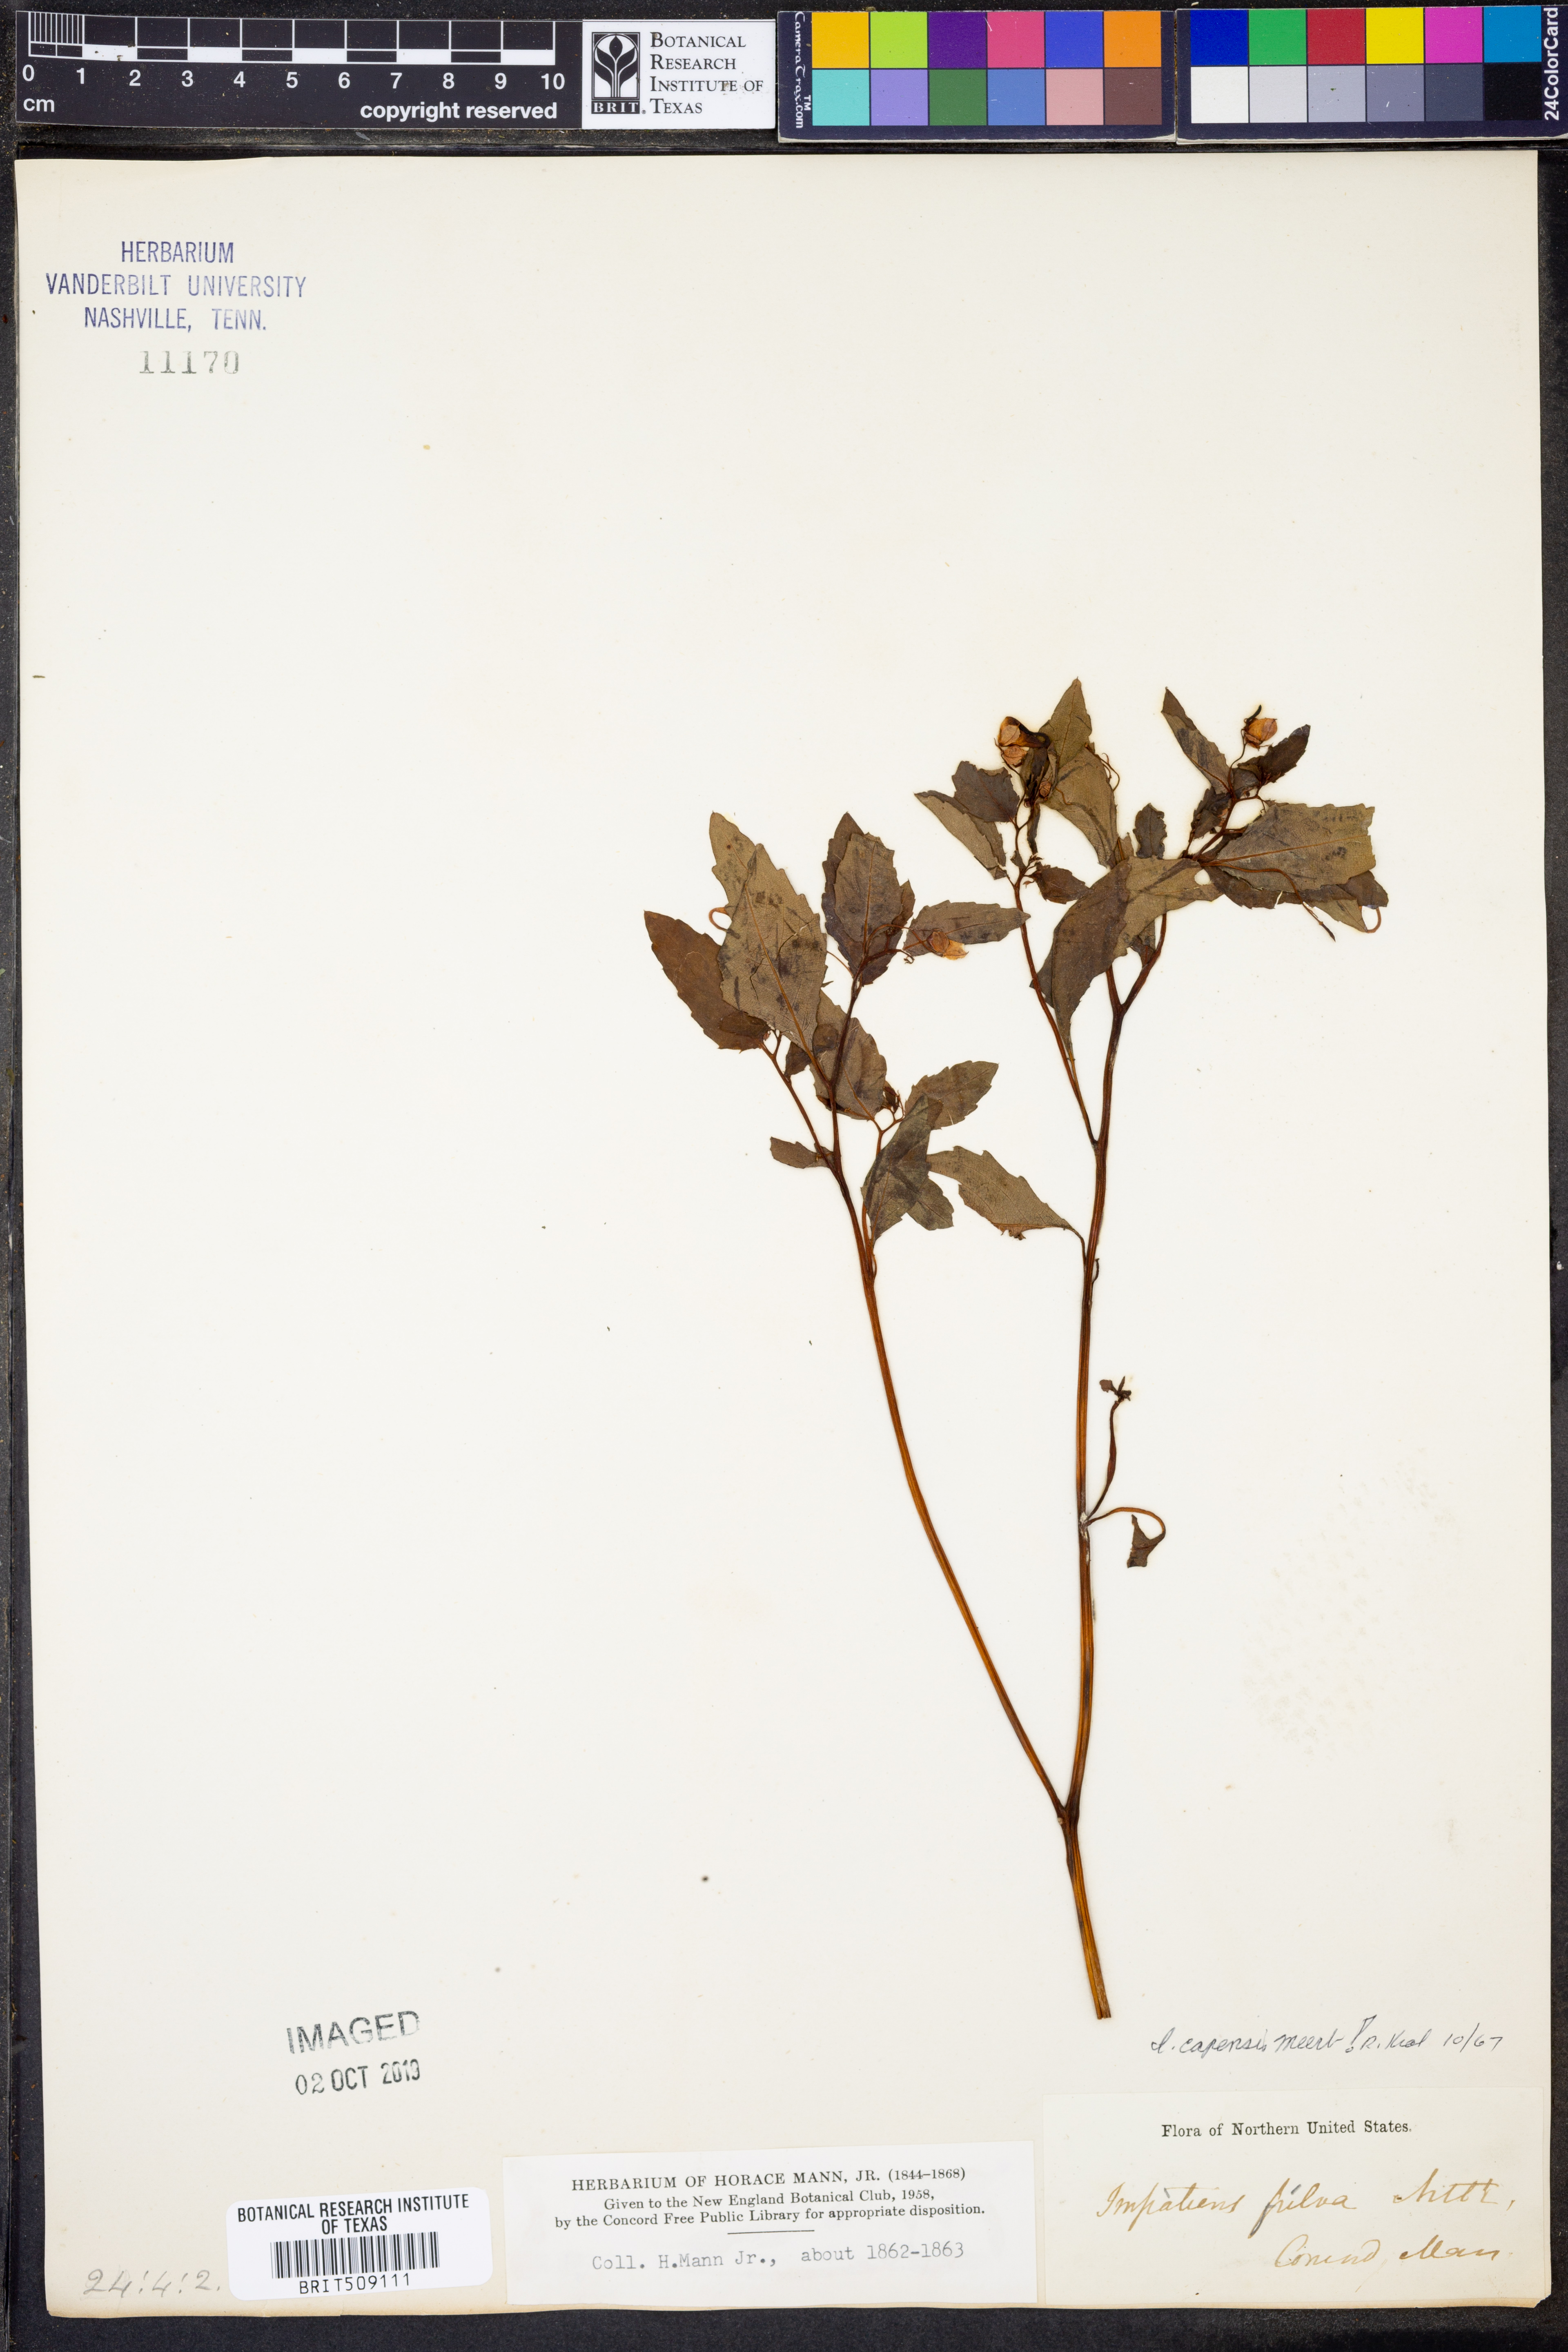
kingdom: Plantae
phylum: Tracheophyta
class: Magnoliopsida
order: Ericales
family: Balsaminaceae
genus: Impatiens
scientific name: Impatiens capensis
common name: Orange balsam
